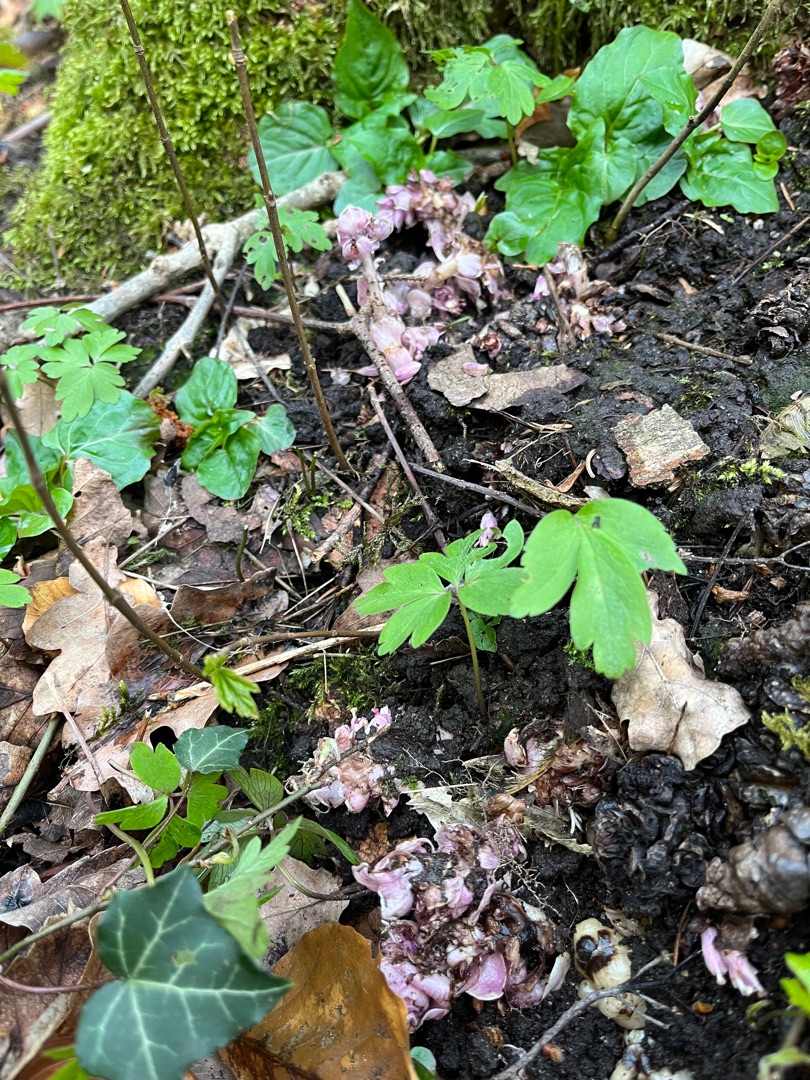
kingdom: Plantae
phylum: Tracheophyta
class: Magnoliopsida
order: Lamiales
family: Orobanchaceae
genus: Lathraea
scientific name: Lathraea squamaria
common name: Skælrod
